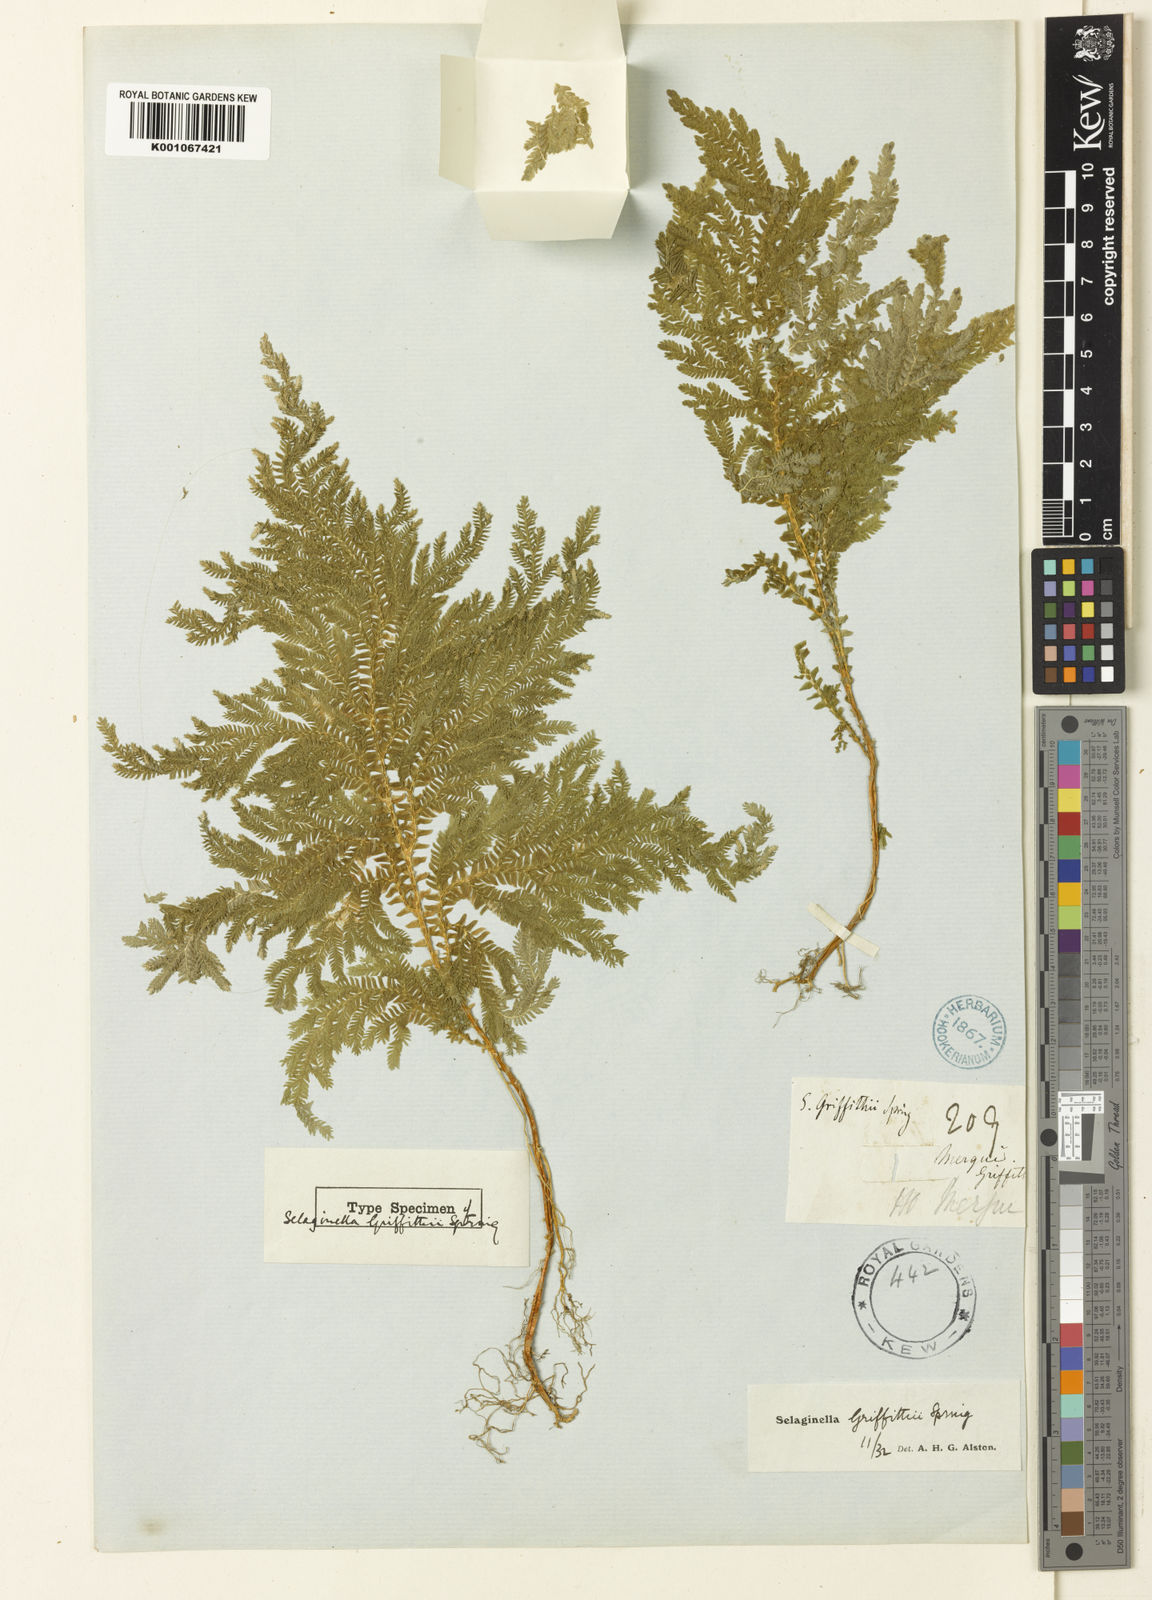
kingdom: Plantae
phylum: Tracheophyta
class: Lycopodiopsida
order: Selaginellales
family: Selaginellaceae
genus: Selaginella
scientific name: Selaginella
